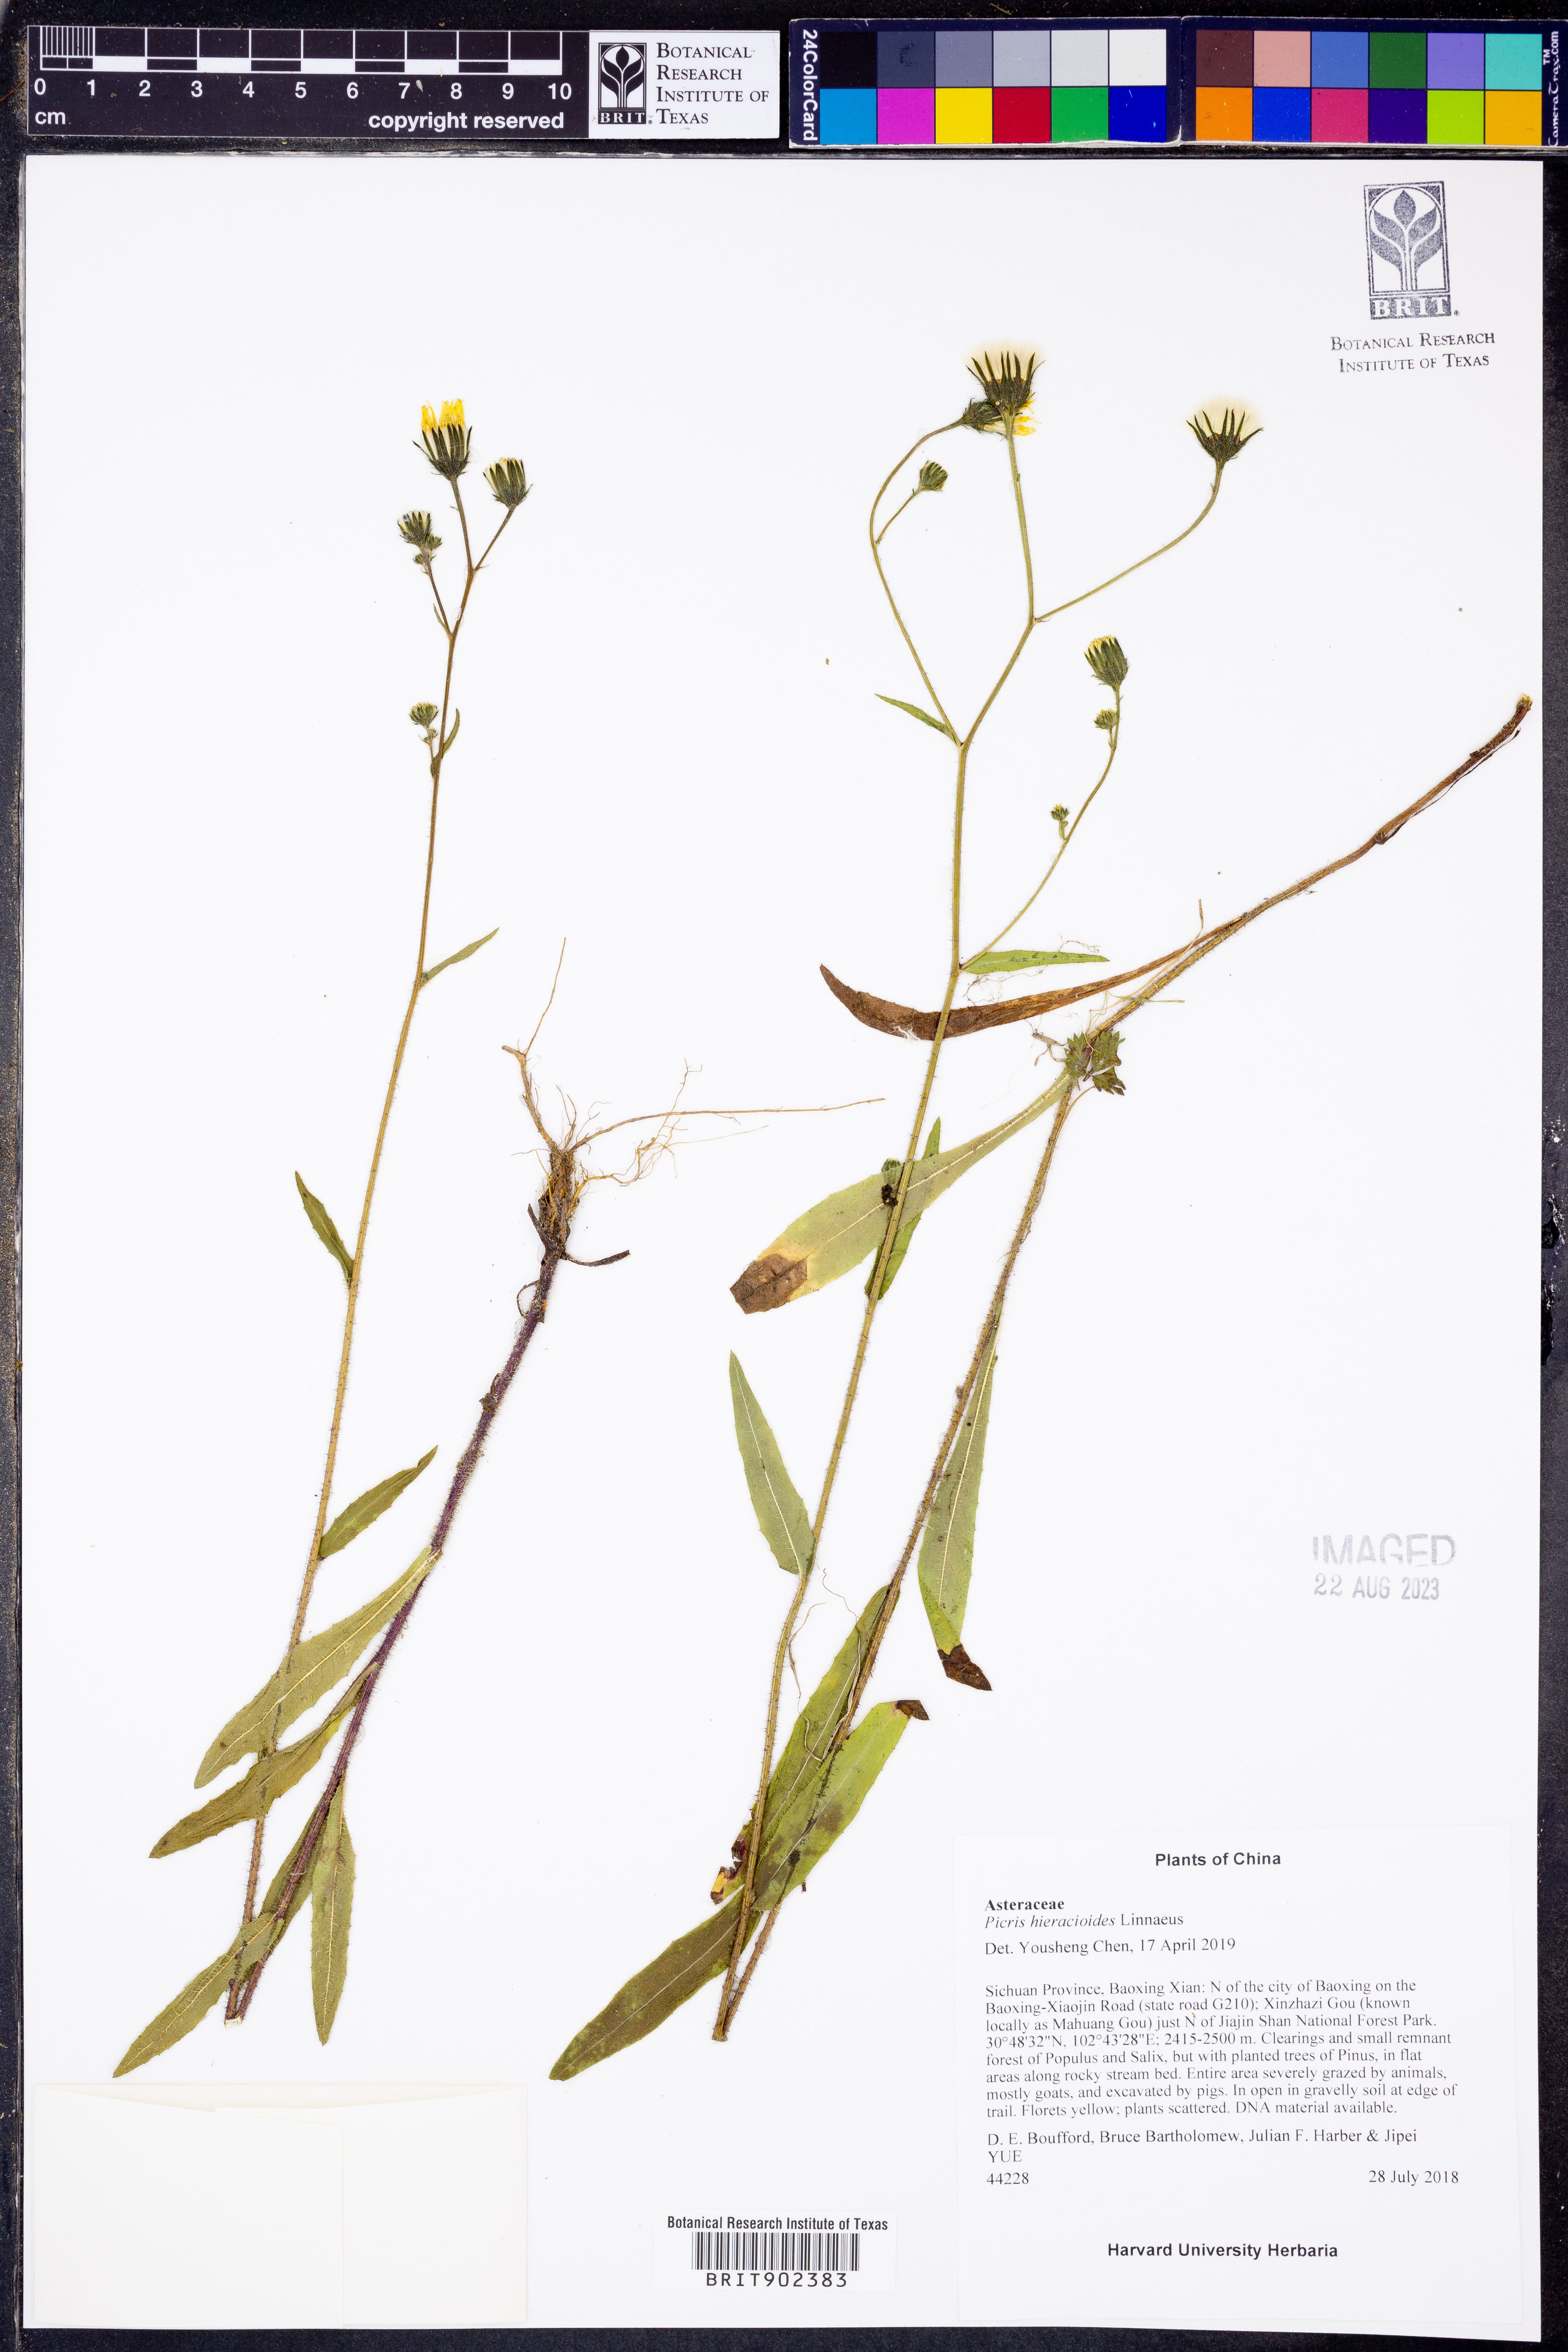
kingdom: Plantae
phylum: Tracheophyta
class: Magnoliopsida
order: Asterales
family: Asteraceae
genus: Picris
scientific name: Picris hieracioides
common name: Hawkweed oxtongue
